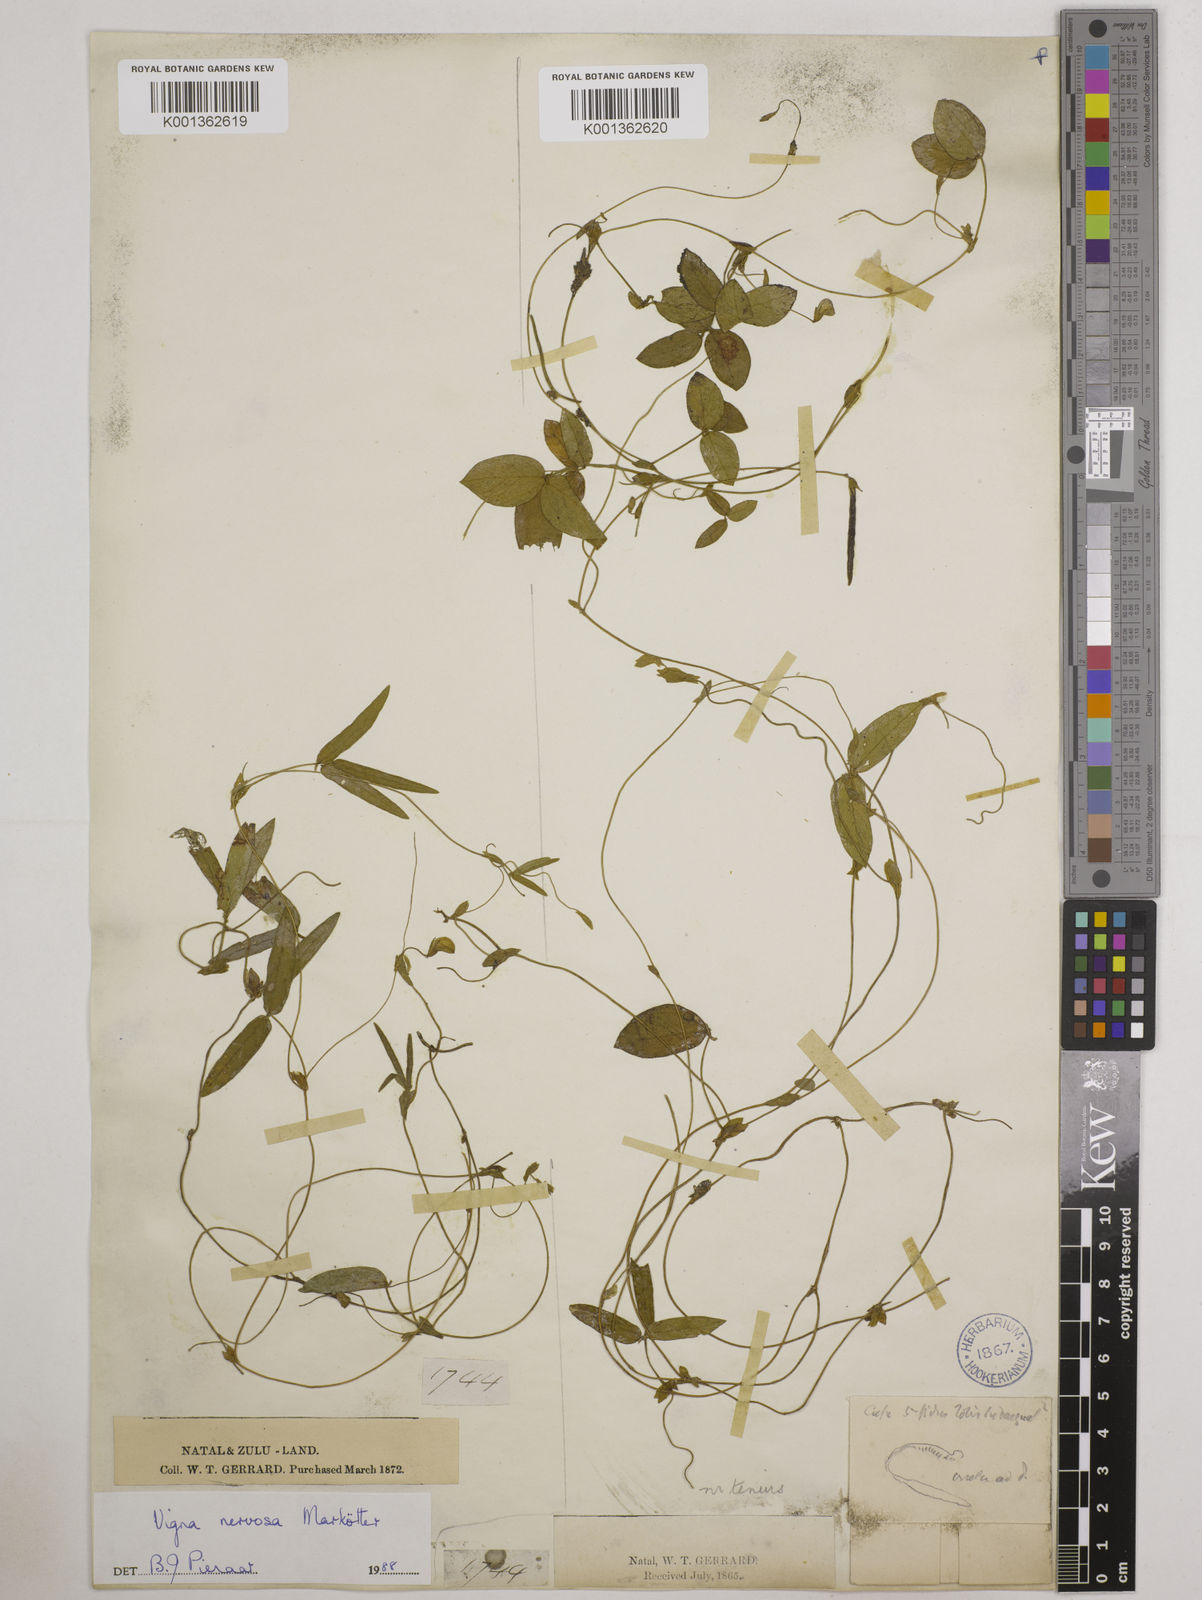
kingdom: Plantae
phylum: Tracheophyta
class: Magnoliopsida
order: Fabales
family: Fabaceae
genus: Vigna
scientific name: Vigna nervosa
